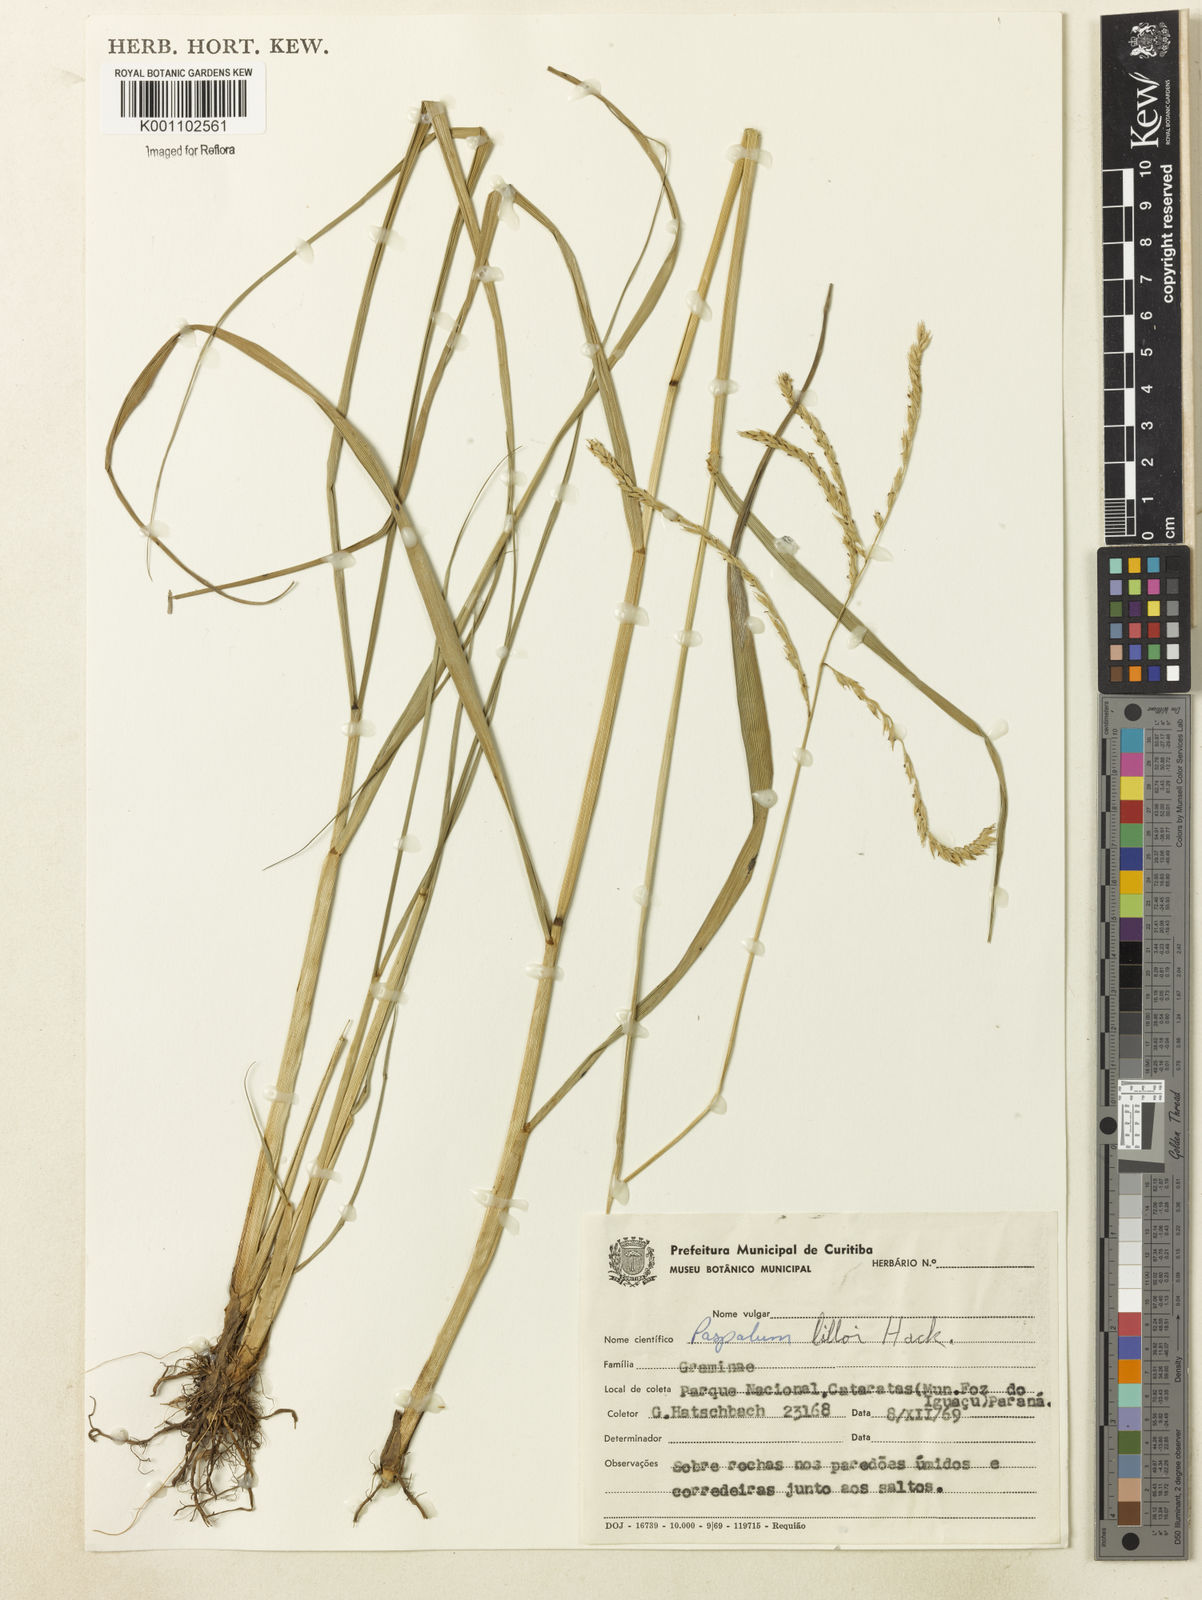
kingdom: Plantae
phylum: Tracheophyta
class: Liliopsida
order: Poales
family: Poaceae
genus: Paspalum
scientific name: Paspalum lilloi
